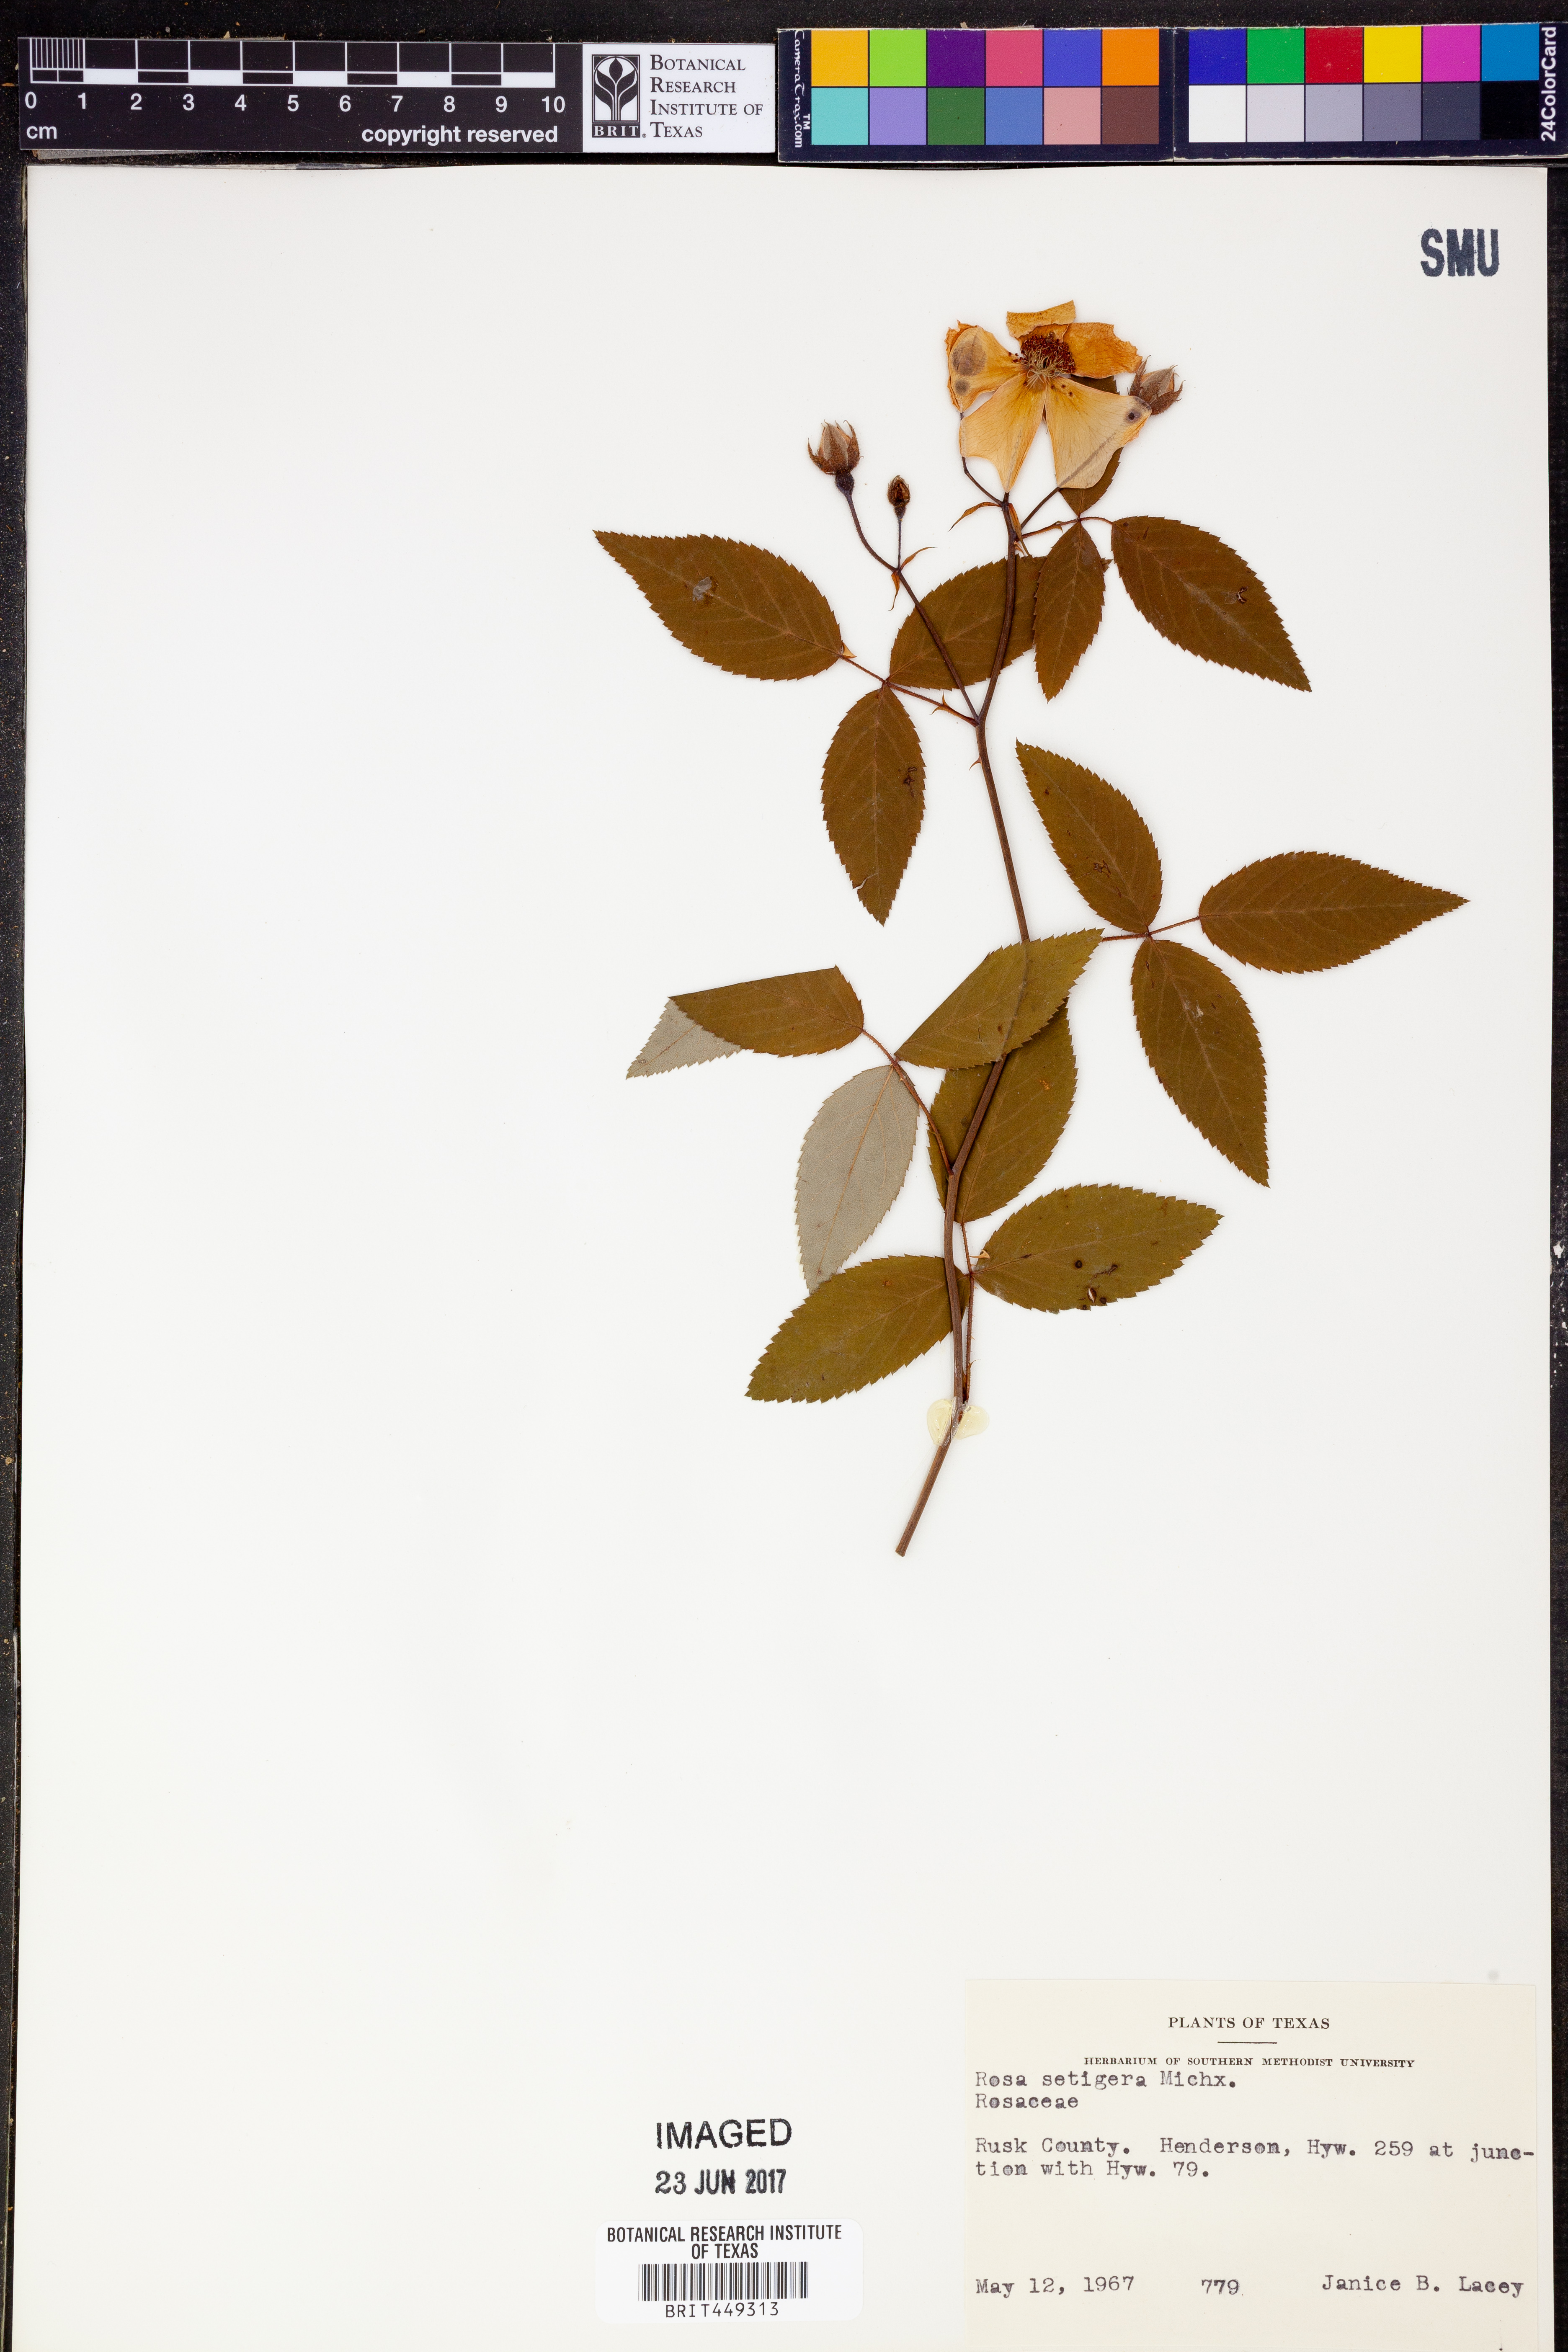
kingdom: Plantae
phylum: Tracheophyta
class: Magnoliopsida
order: Rosales
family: Rosaceae
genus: Rosa
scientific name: Rosa setigera
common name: Prairie rose
